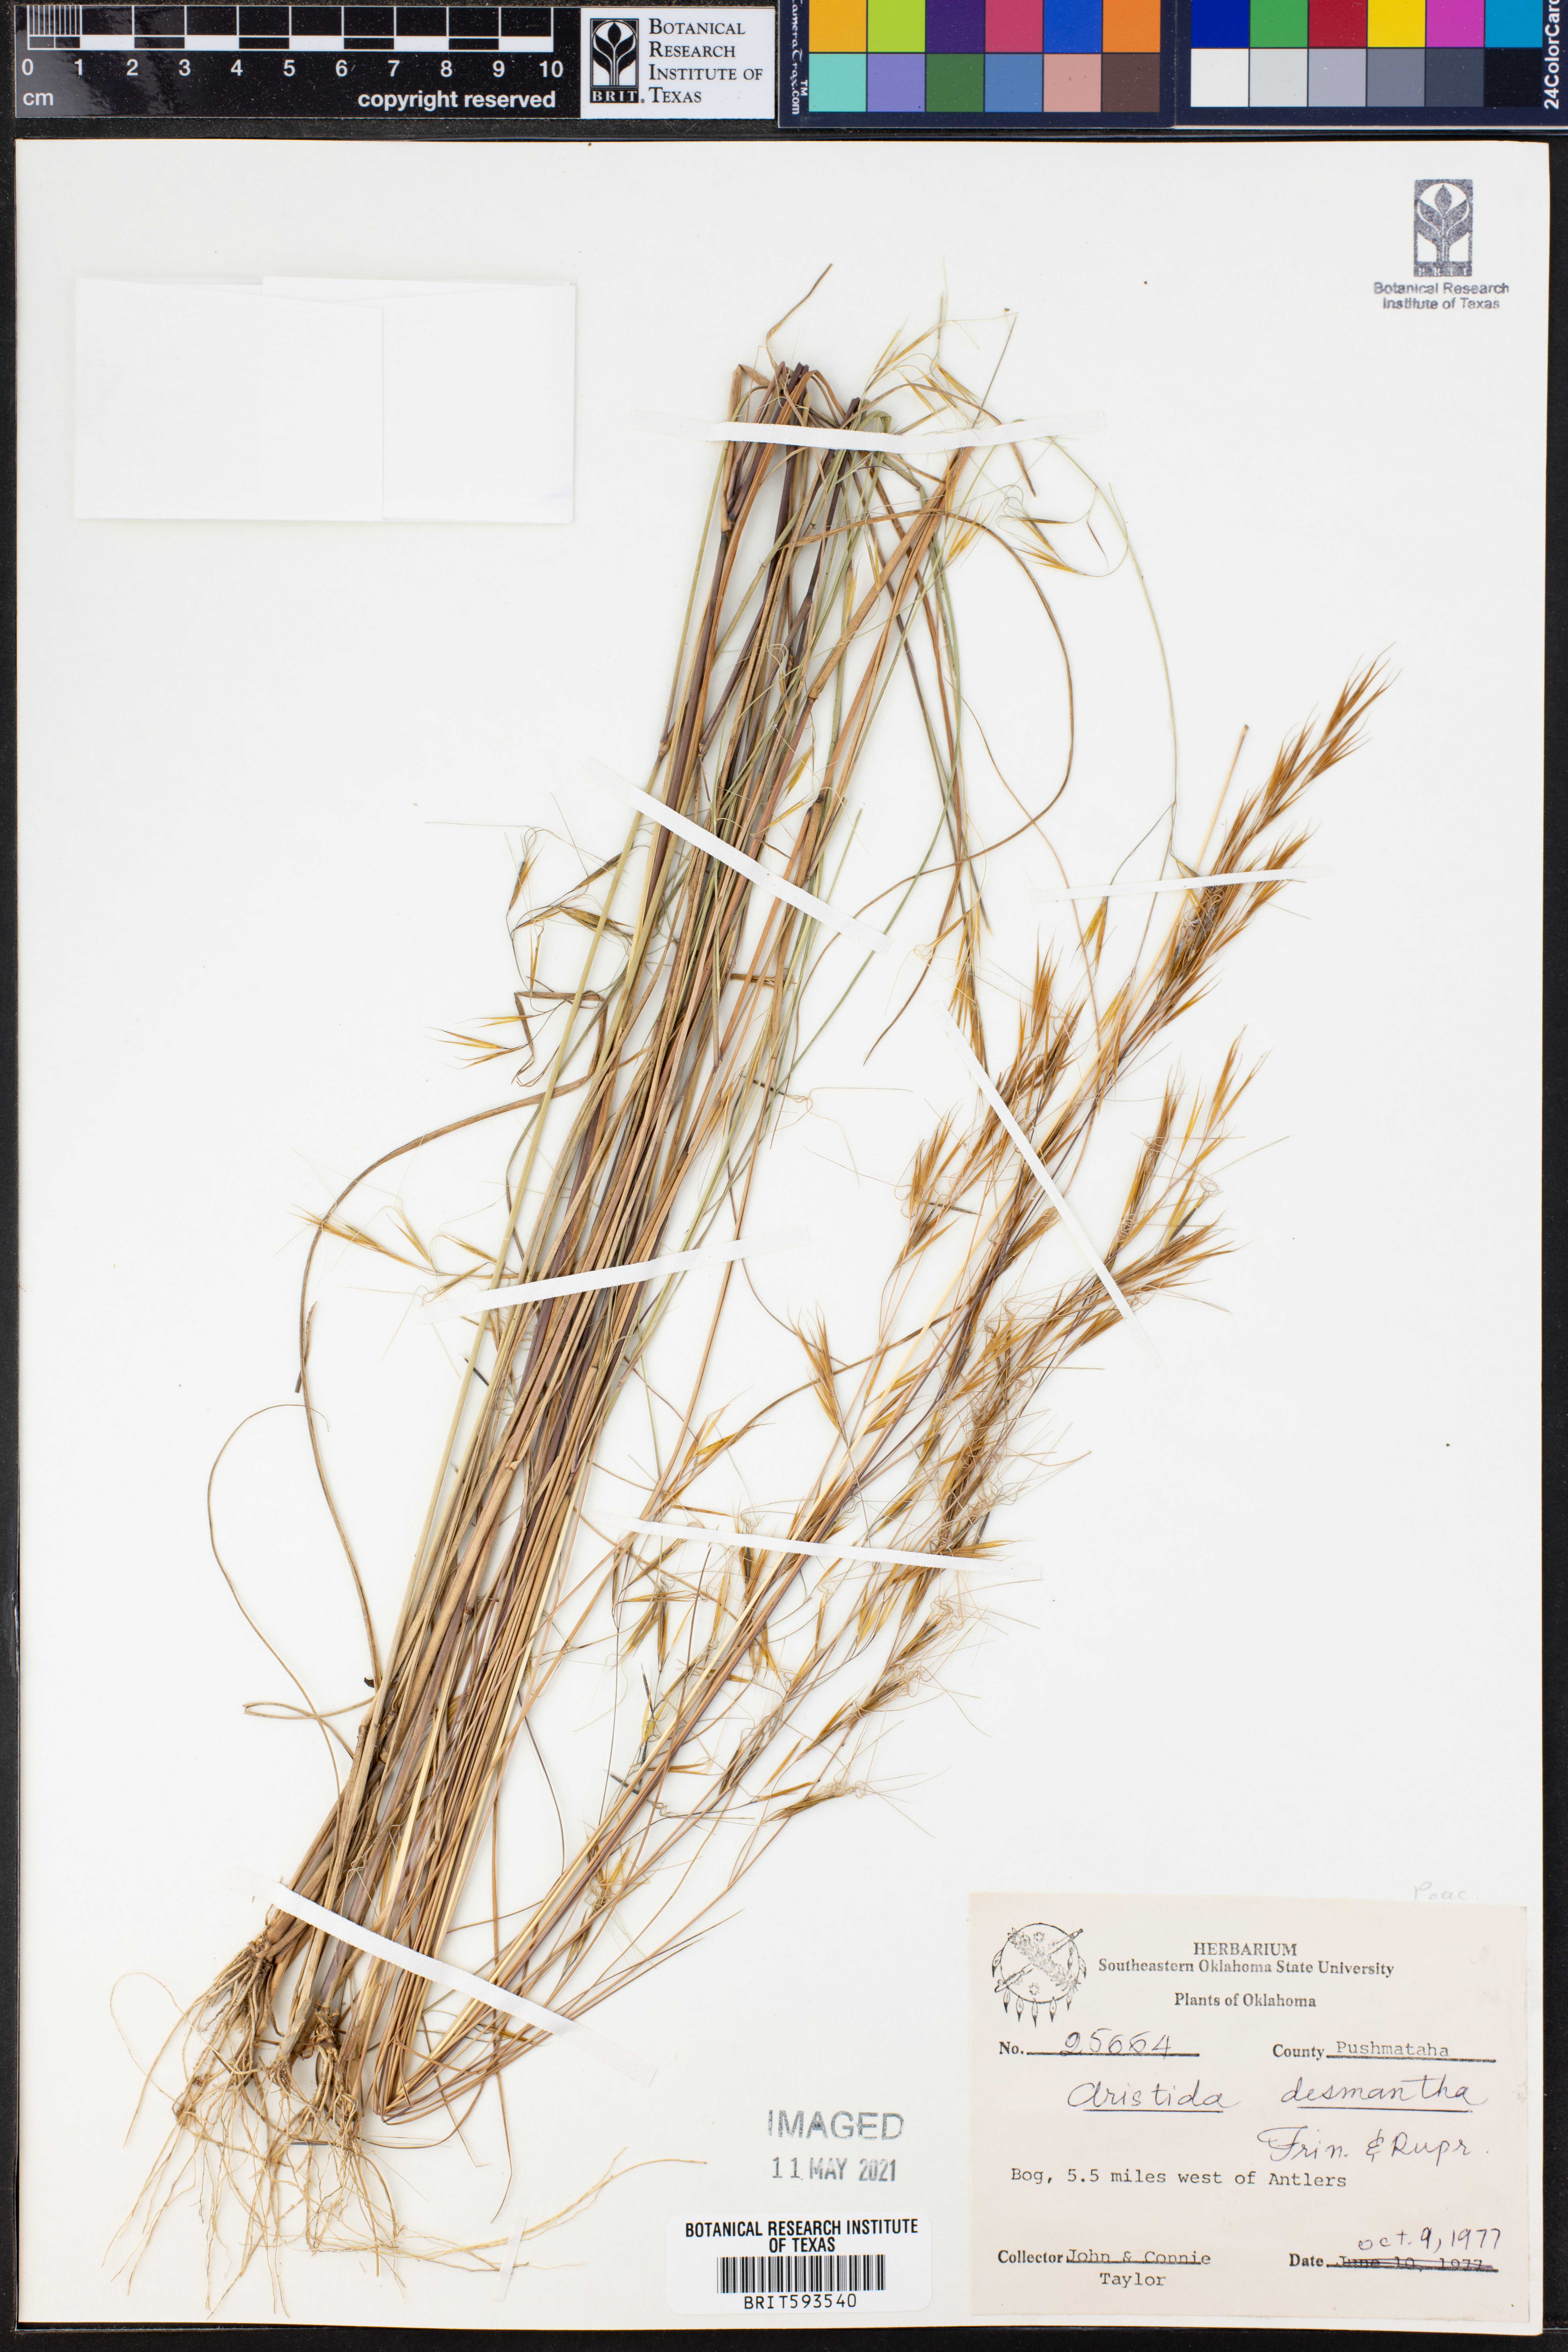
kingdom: Plantae
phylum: Tracheophyta
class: Liliopsida
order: Poales
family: Poaceae
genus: Aristida
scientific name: Aristida desmantha
